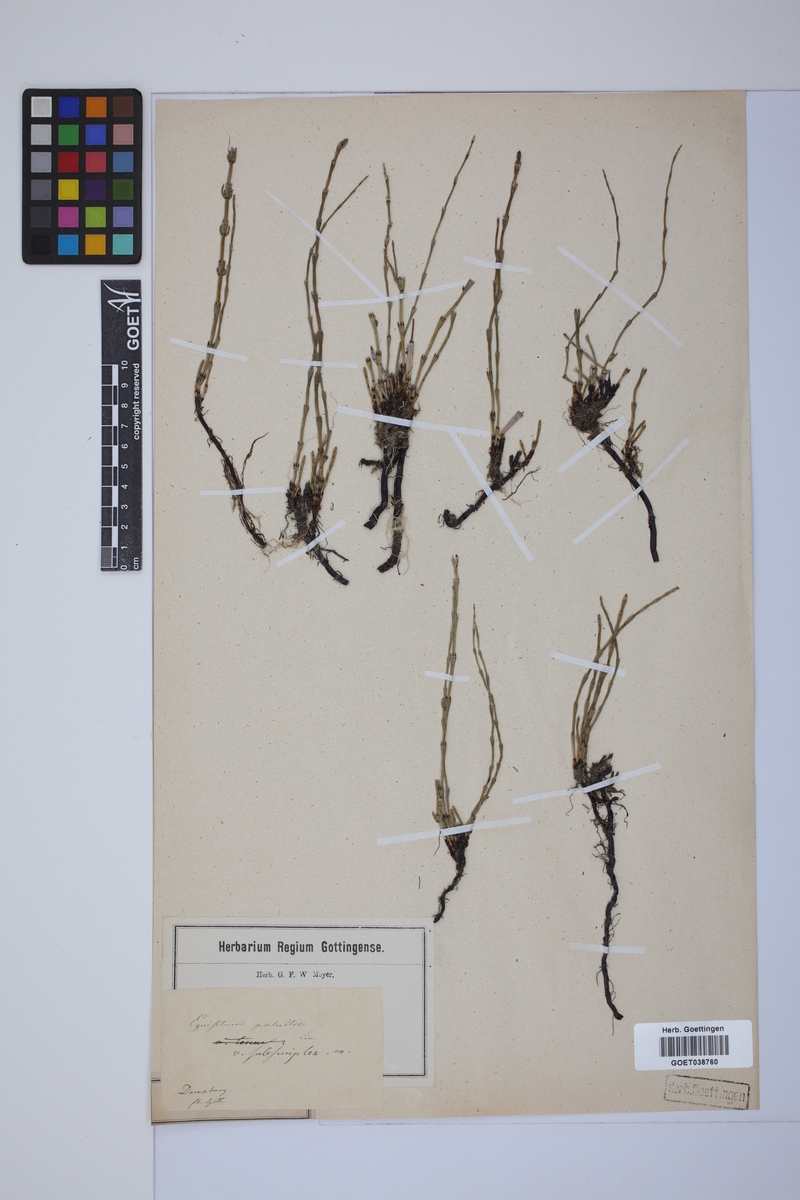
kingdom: Plantae
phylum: Tracheophyta
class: Polypodiopsida
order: Equisetales
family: Equisetaceae
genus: Equisetum
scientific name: Equisetum palustre
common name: Marsh horsetail
